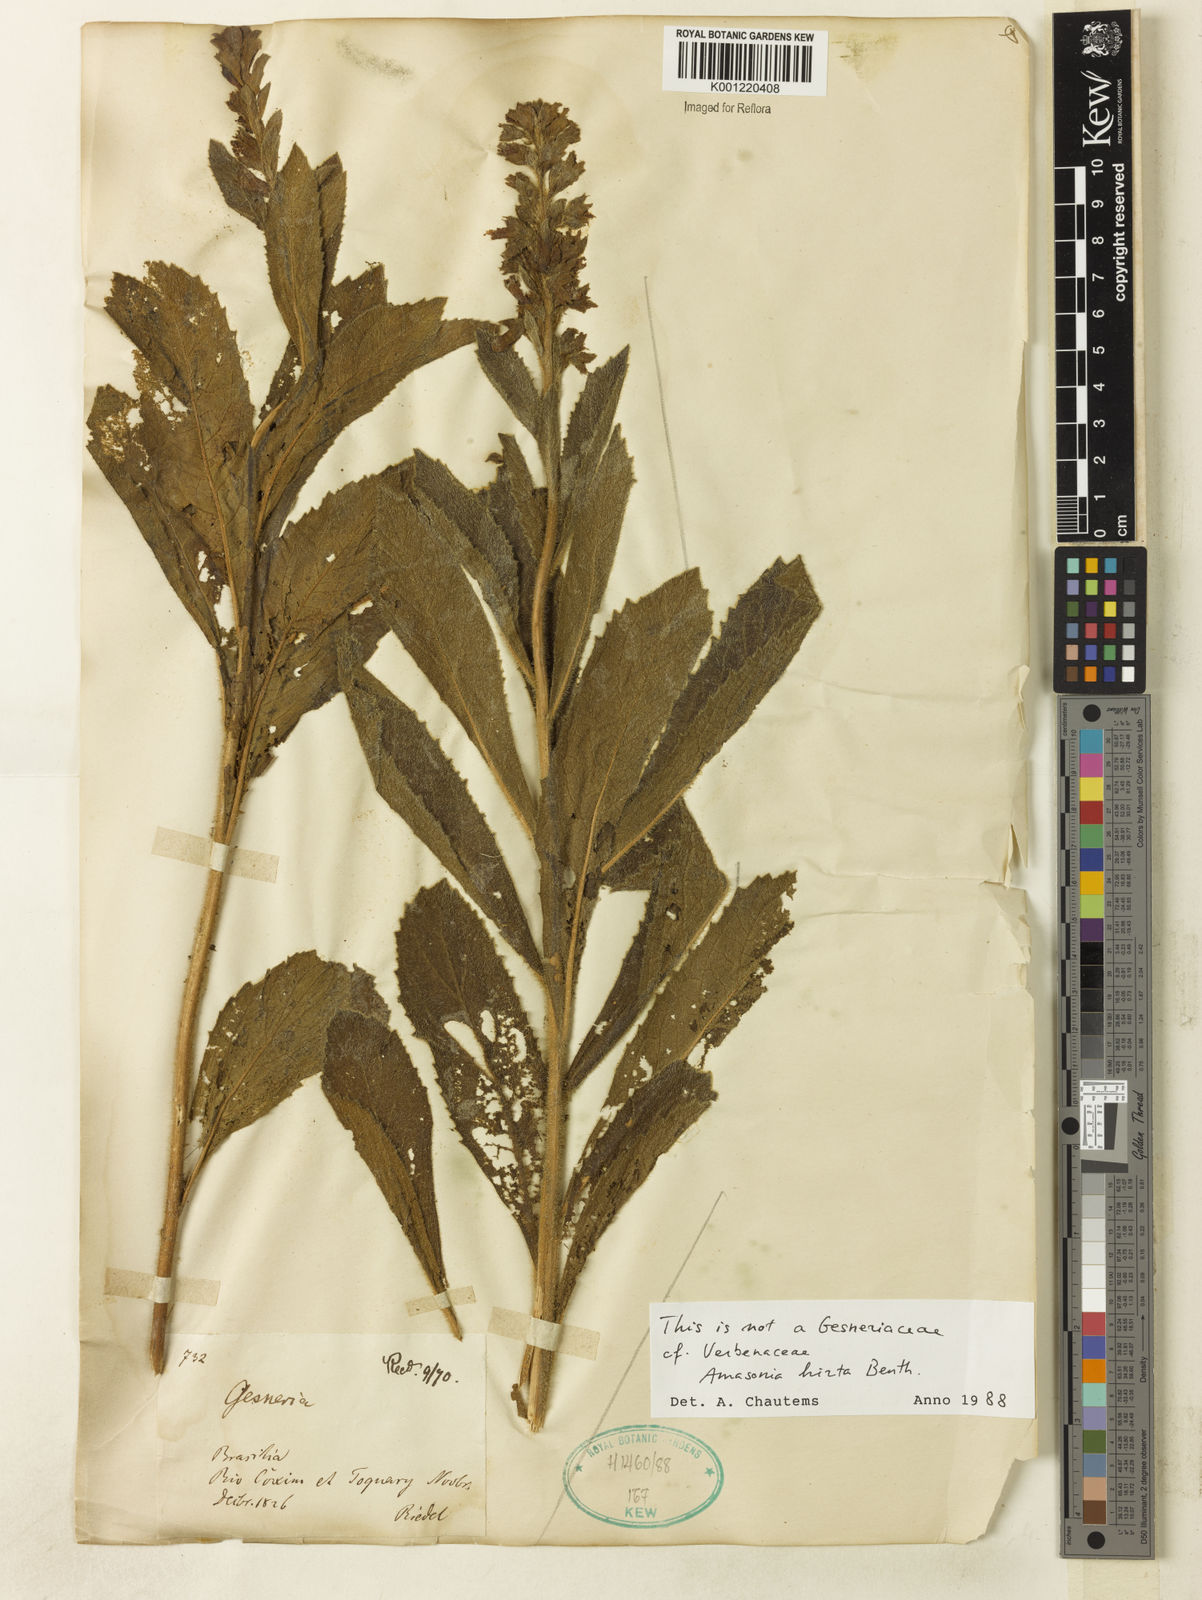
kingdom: Plantae
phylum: Tracheophyta
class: Magnoliopsida
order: Lamiales
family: Lamiaceae
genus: Amasonia
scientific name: Amasonia hirta
